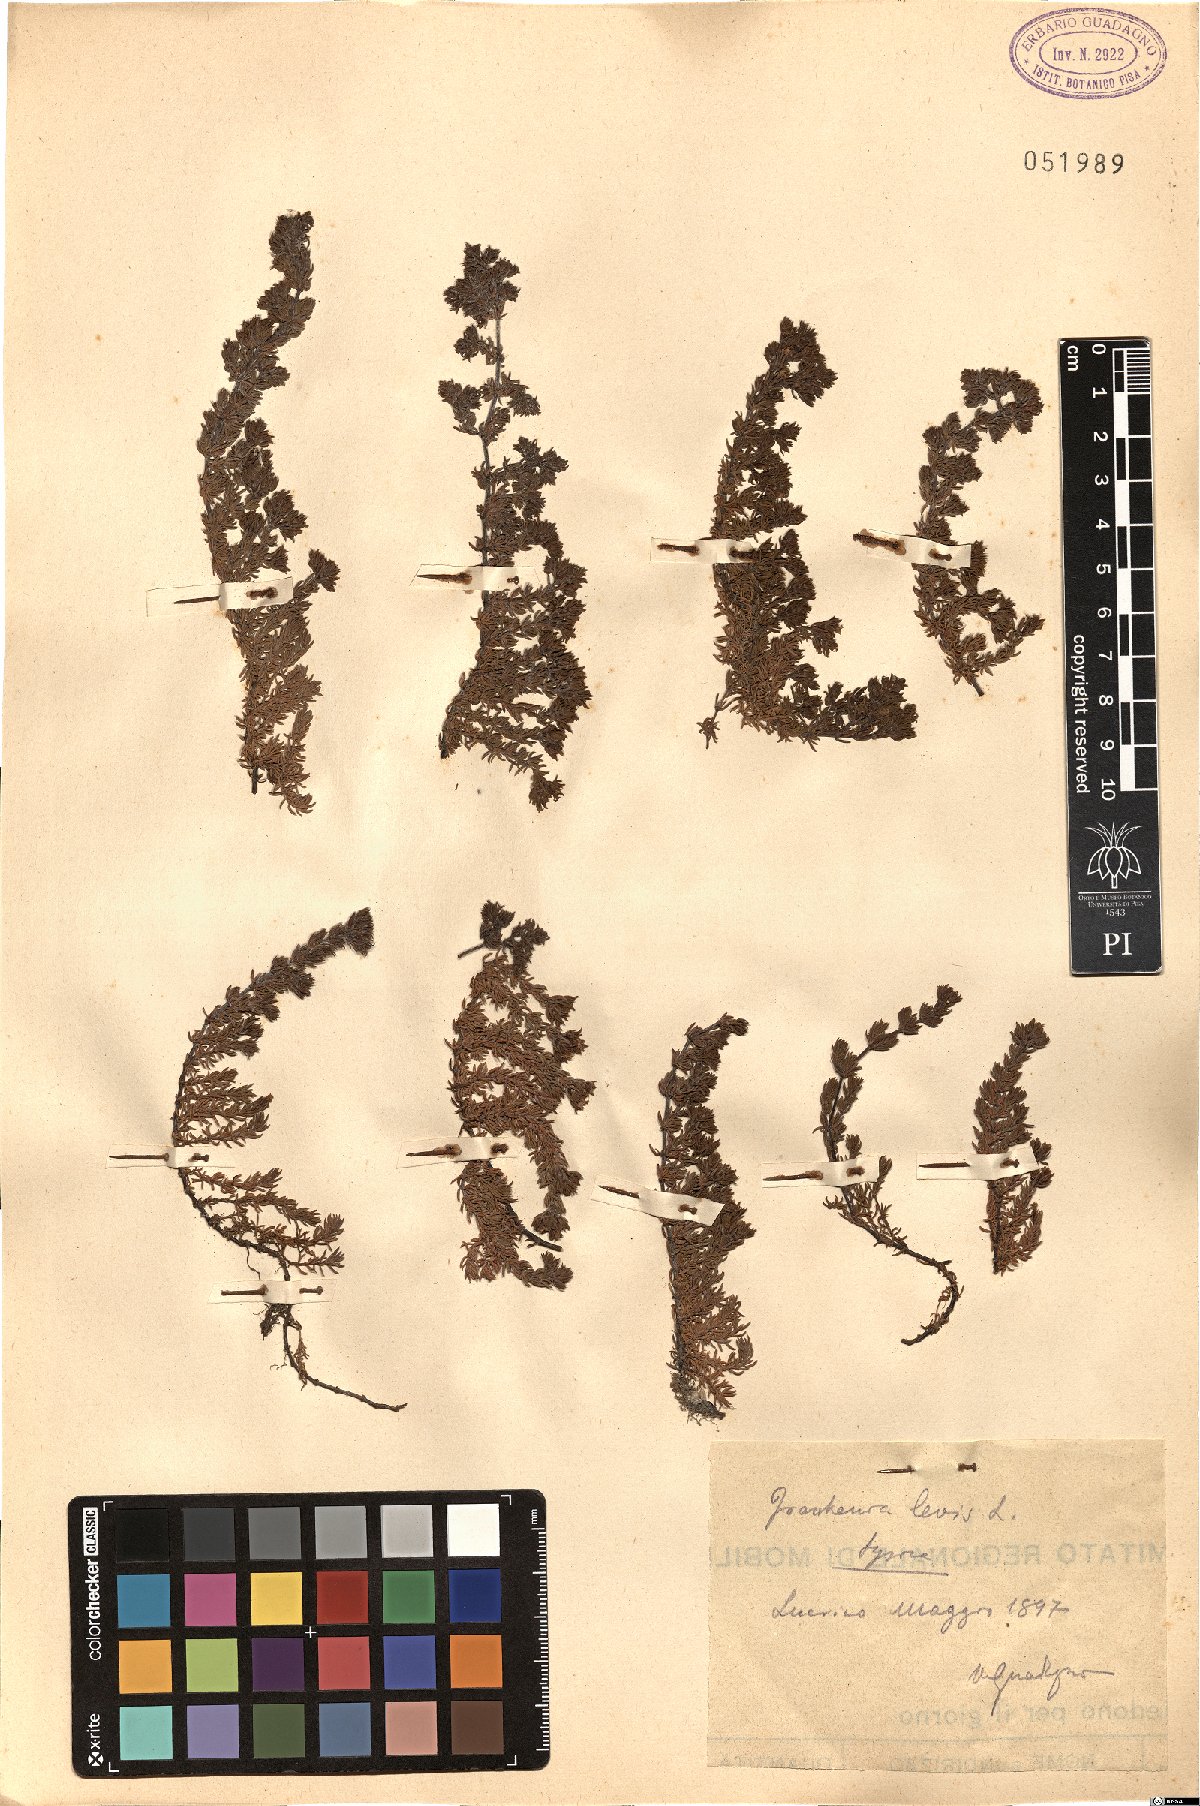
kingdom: Plantae
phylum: Tracheophyta
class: Magnoliopsida
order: Caryophyllales
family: Frankeniaceae
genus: Frankenia
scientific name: Frankenia laevis
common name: Sea-heath
